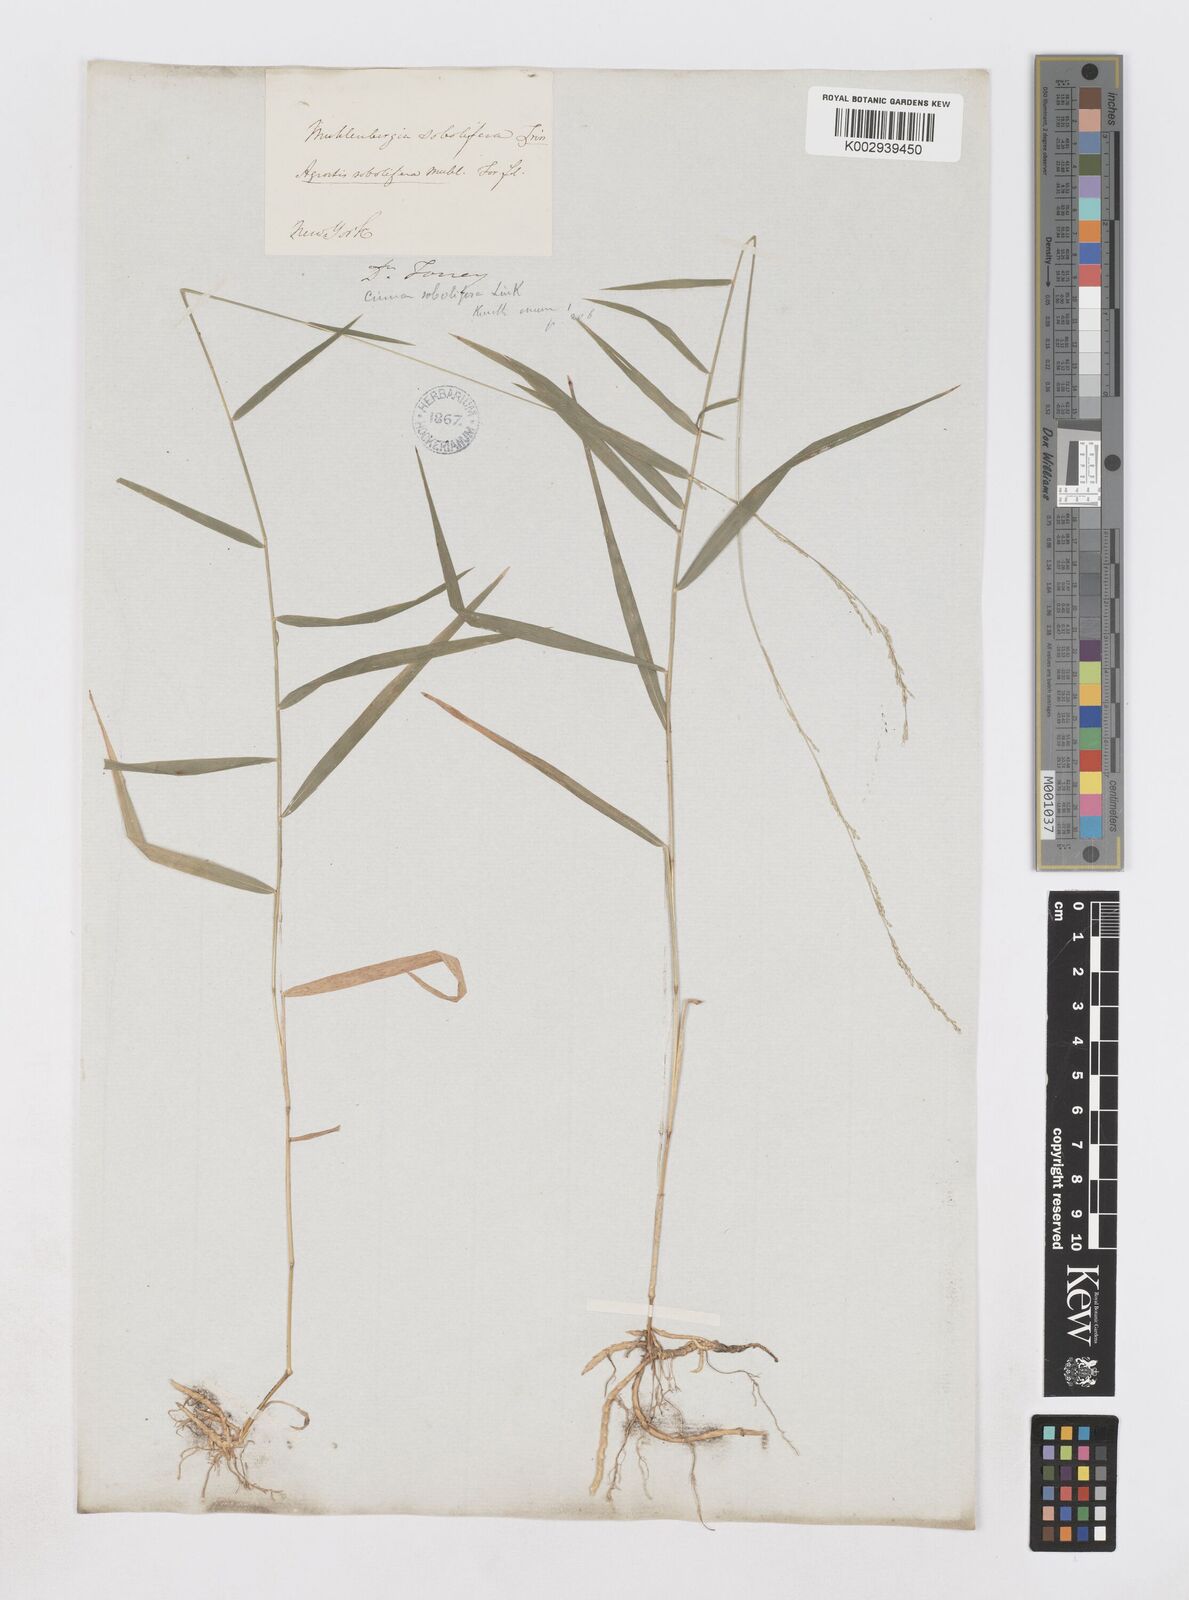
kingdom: Plantae
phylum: Tracheophyta
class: Liliopsida
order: Poales
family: Poaceae
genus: Muhlenbergia
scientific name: Muhlenbergia sobolifera
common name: Creeping muhly
